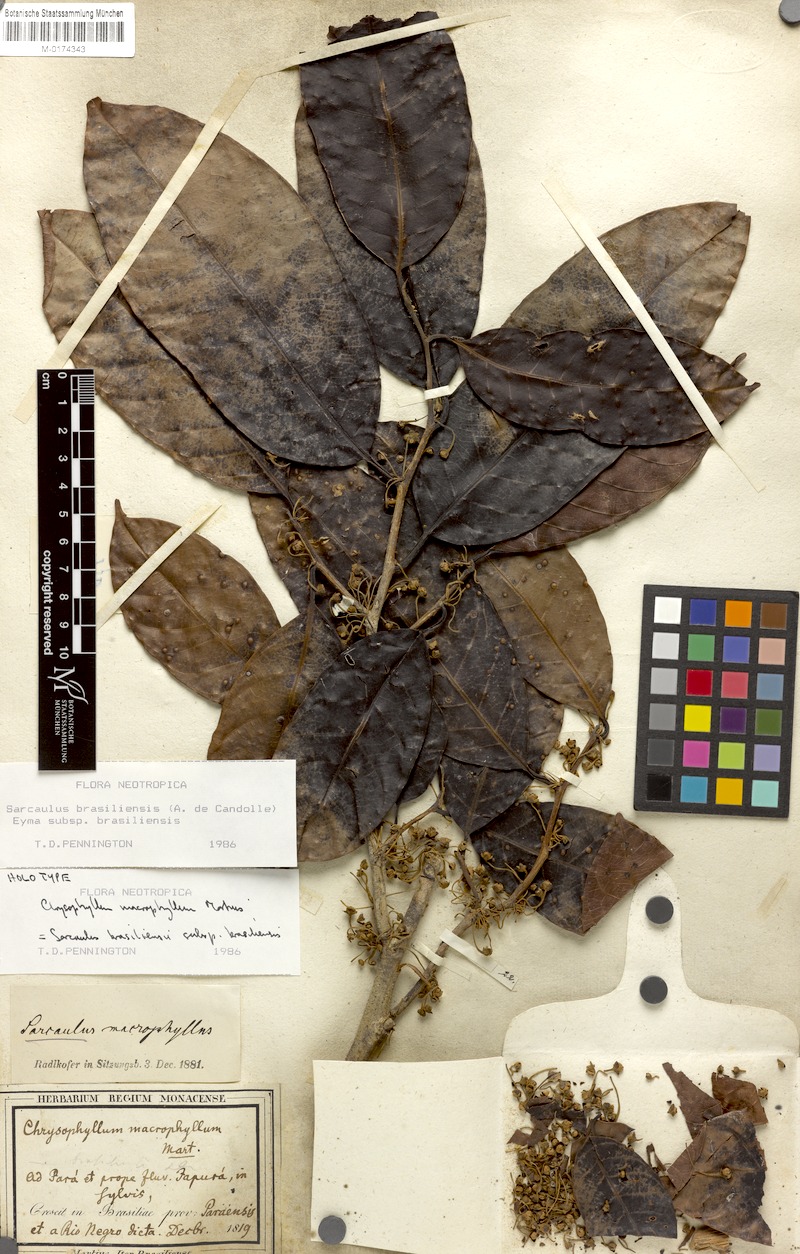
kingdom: Plantae
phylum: Tracheophyta
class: Magnoliopsida
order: Ericales
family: Sapotaceae
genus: Sarcaulus
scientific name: Sarcaulus brasiliensis
